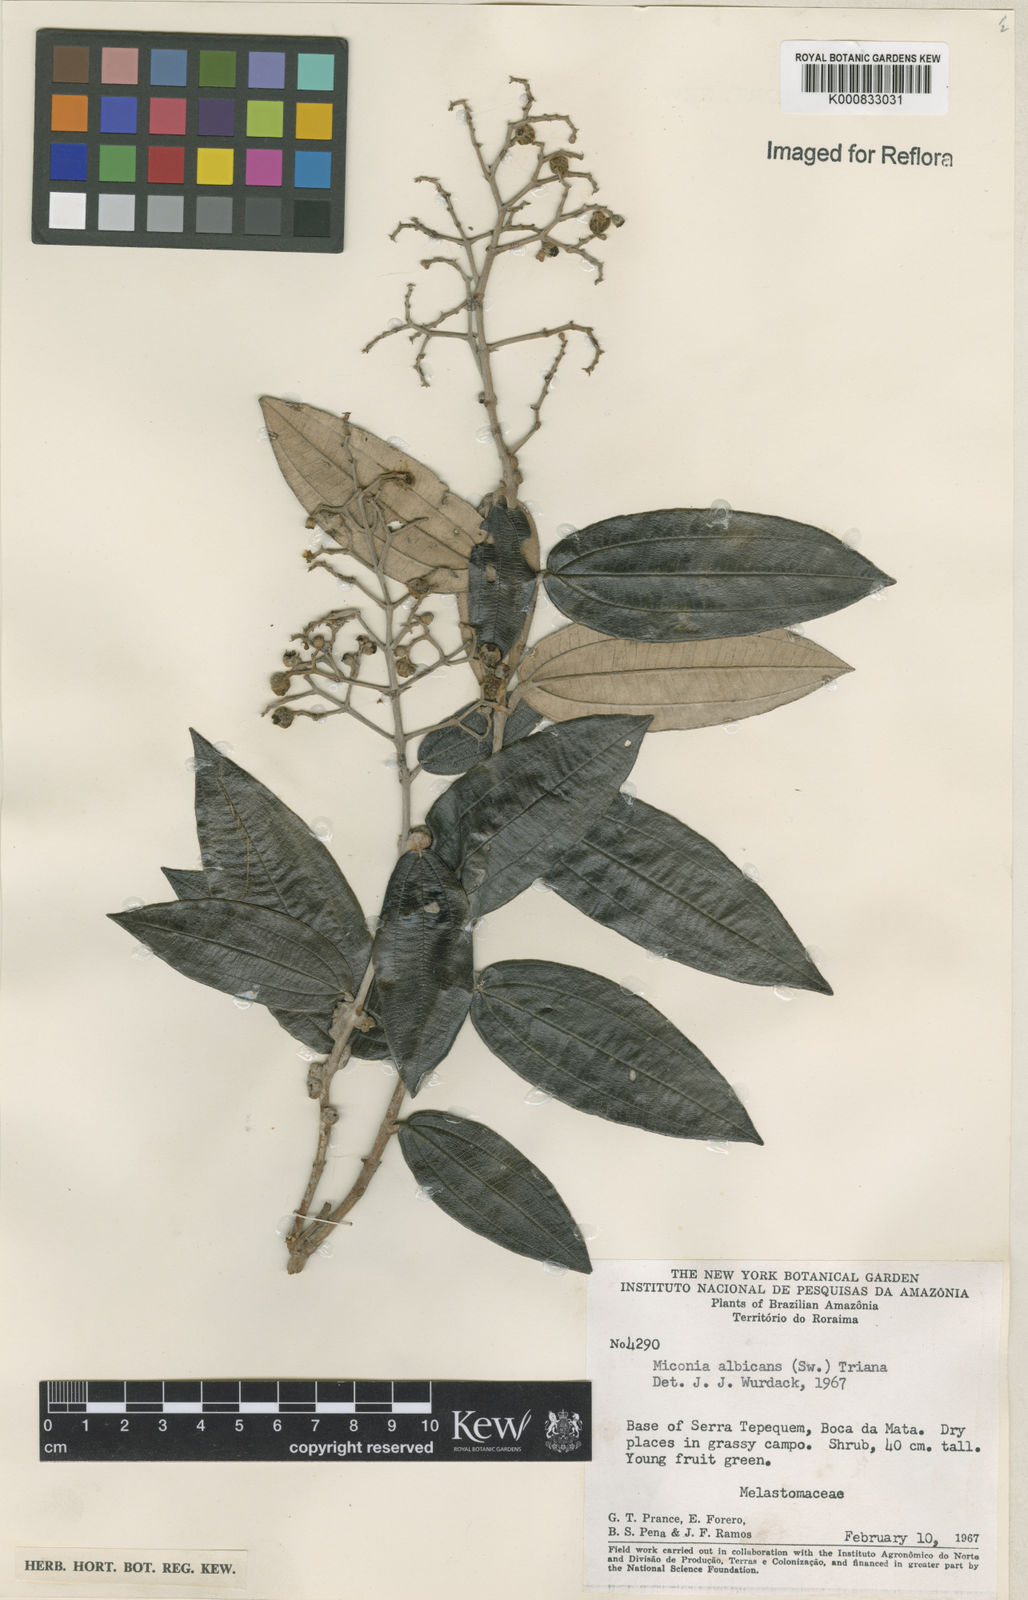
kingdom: Plantae
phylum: Tracheophyta
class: Magnoliopsida
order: Myrtales
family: Melastomataceae
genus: Miconia
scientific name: Miconia albicans
